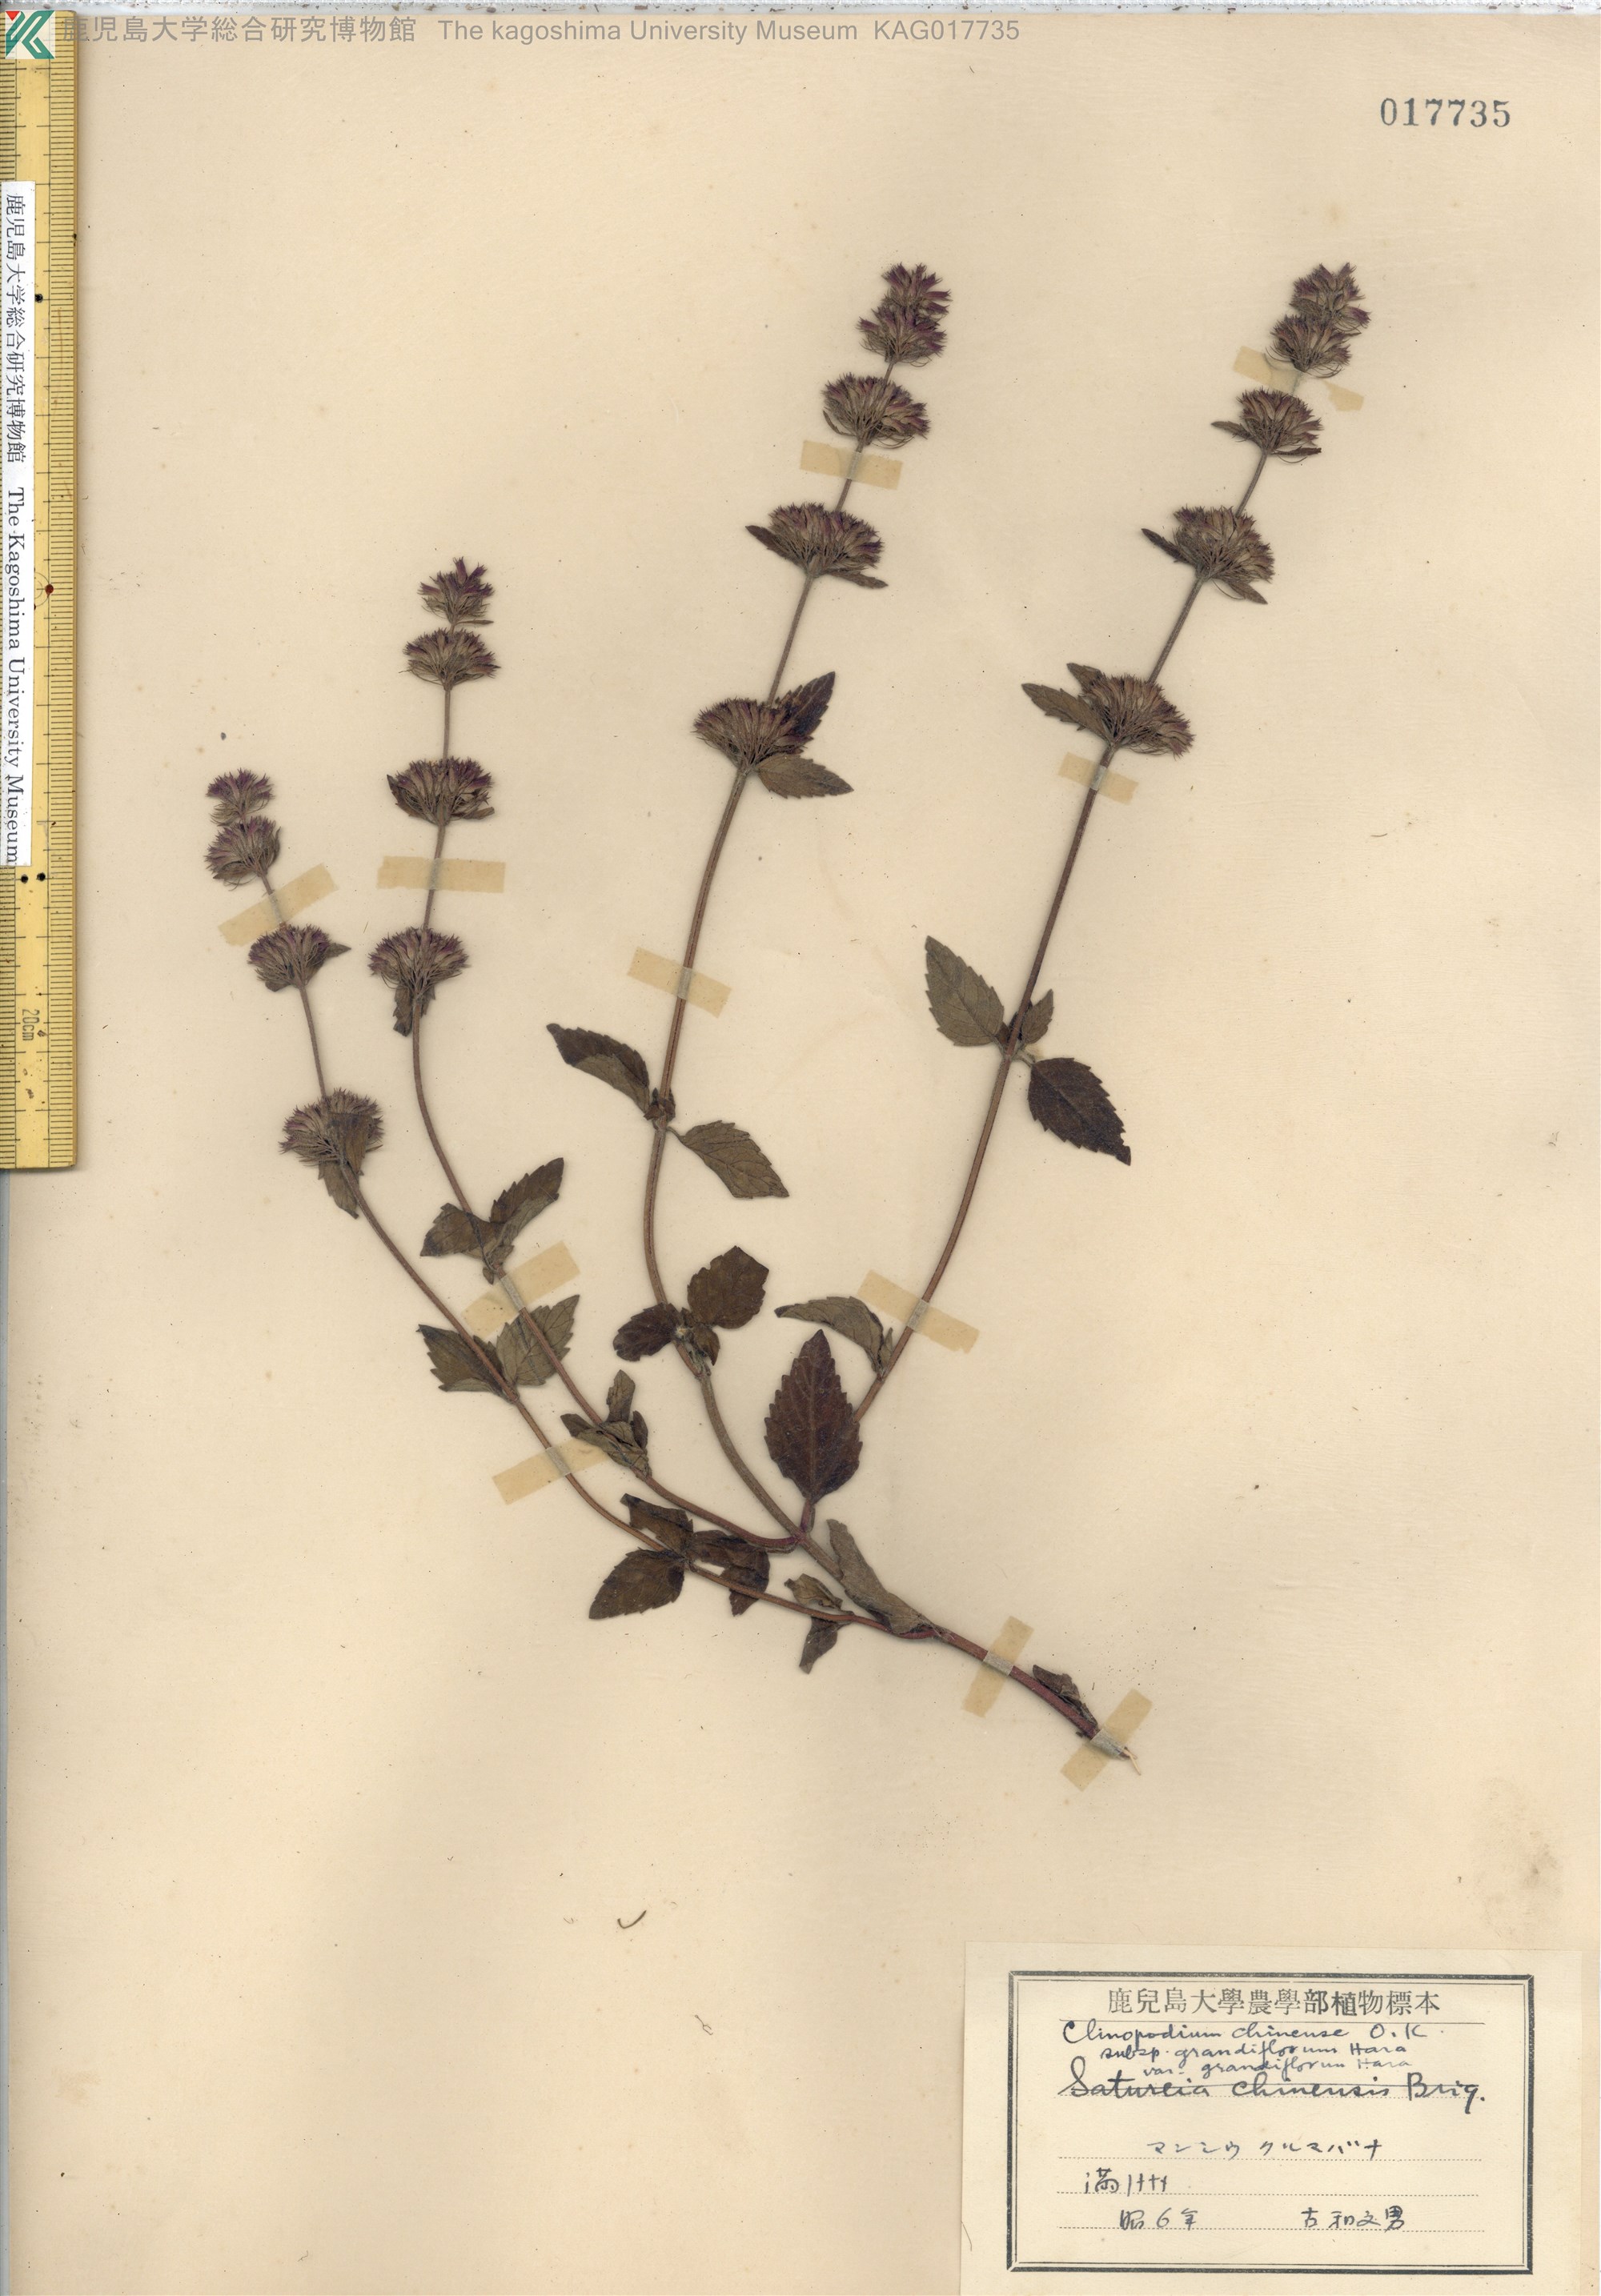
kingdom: Plantae
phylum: Tracheophyta
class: Magnoliopsida
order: Lamiales
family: Lamiaceae
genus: Clinopodium
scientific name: Clinopodium chinense
